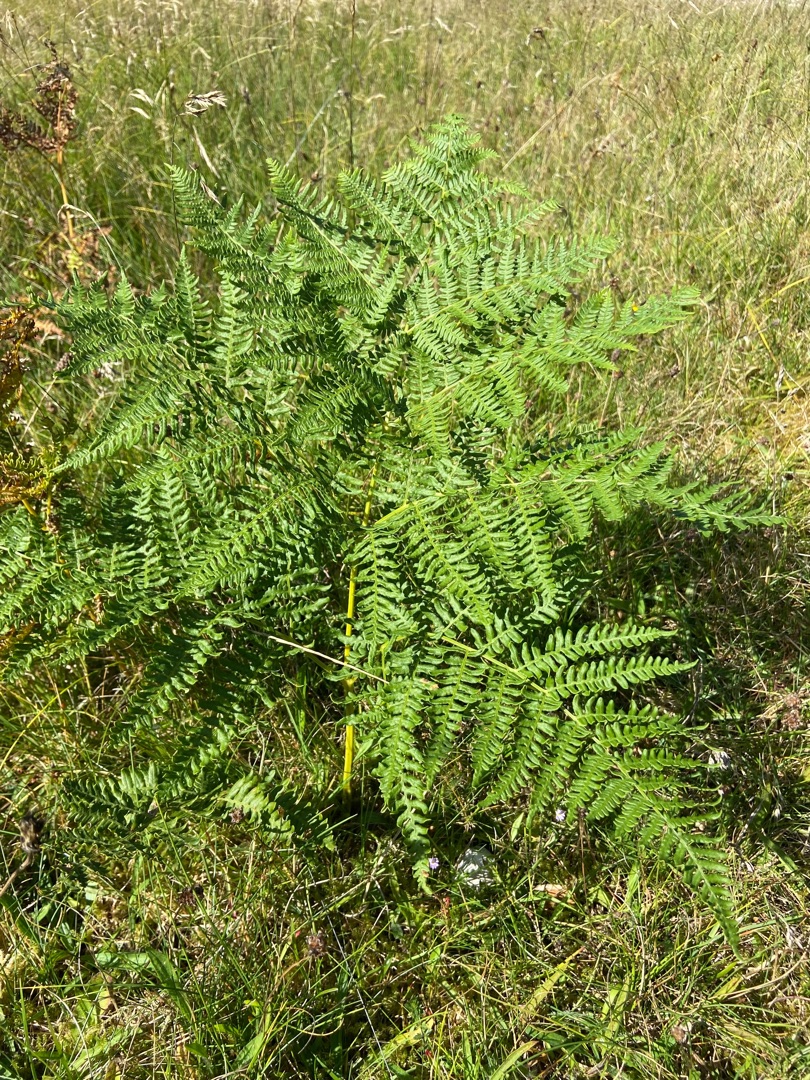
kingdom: Plantae
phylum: Tracheophyta
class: Polypodiopsida
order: Polypodiales
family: Dennstaedtiaceae
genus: Pteridium
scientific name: Pteridium aquilinum
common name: Ørnebregne
